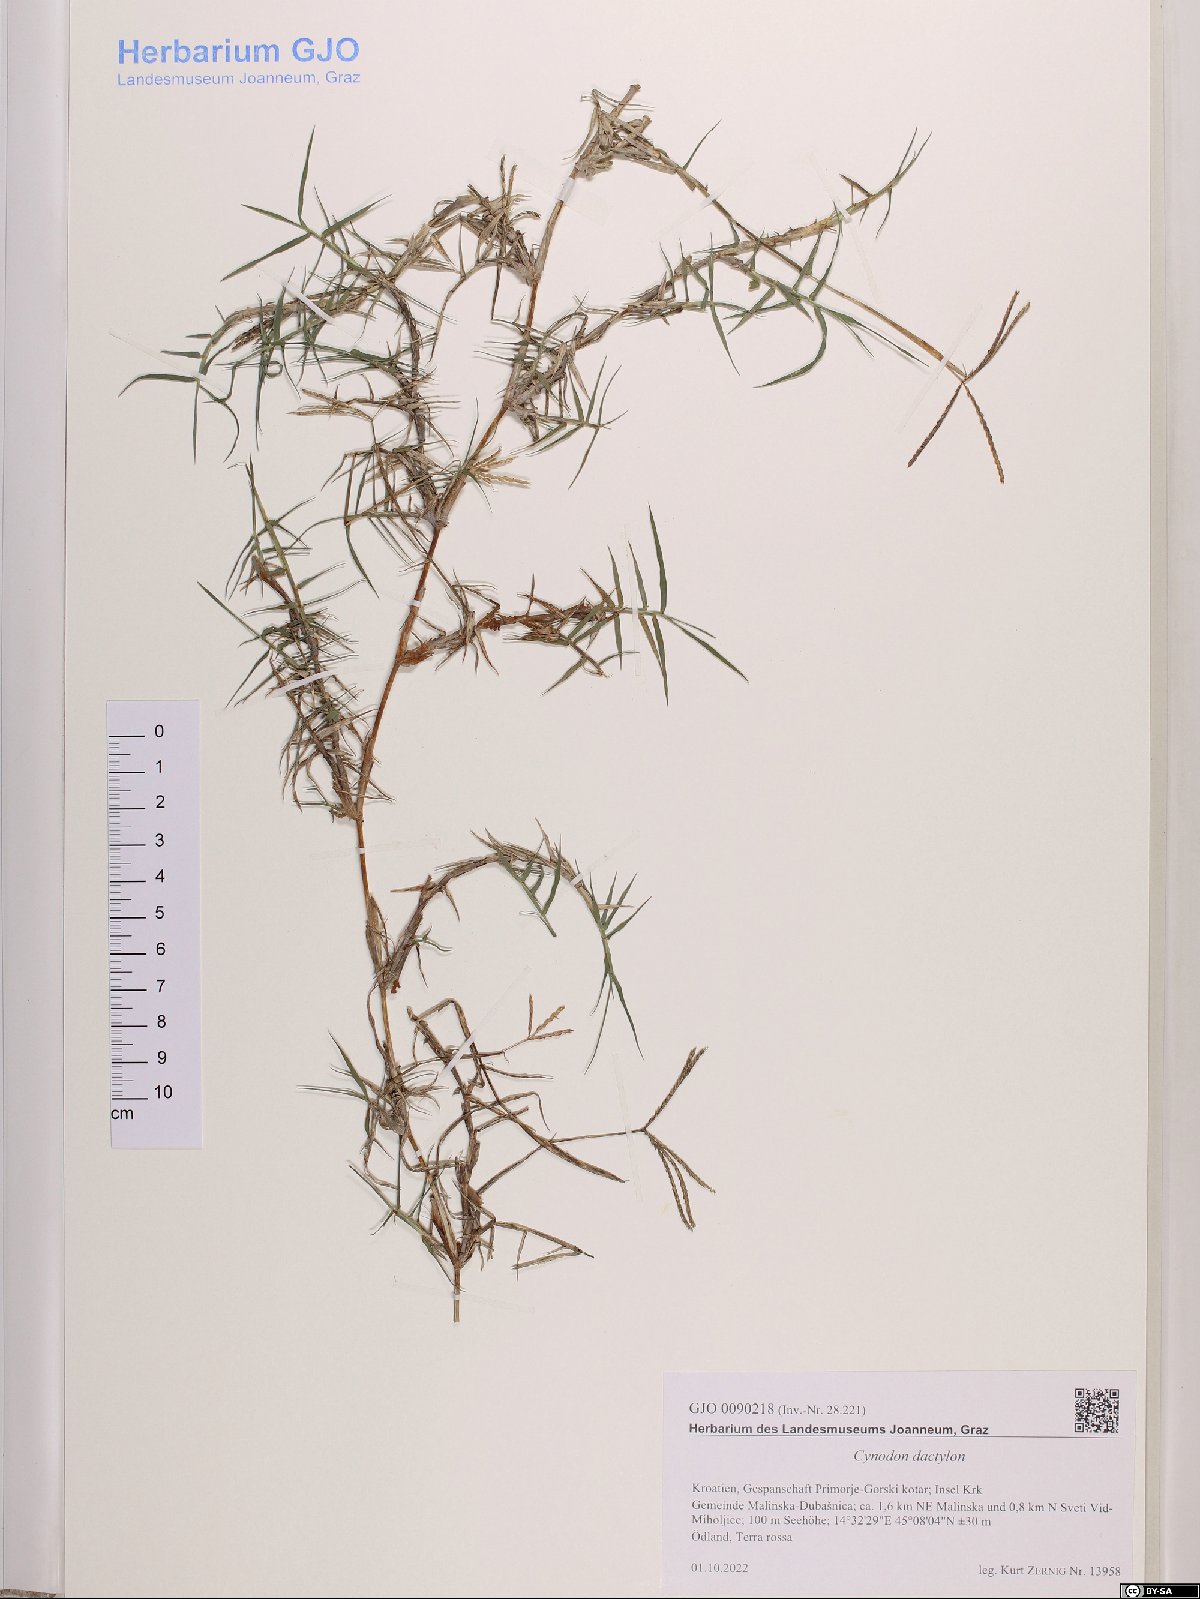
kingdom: Plantae
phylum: Tracheophyta
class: Liliopsida
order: Poales
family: Poaceae
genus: Cynodon
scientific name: Cynodon dactylon
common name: Bermuda grass
